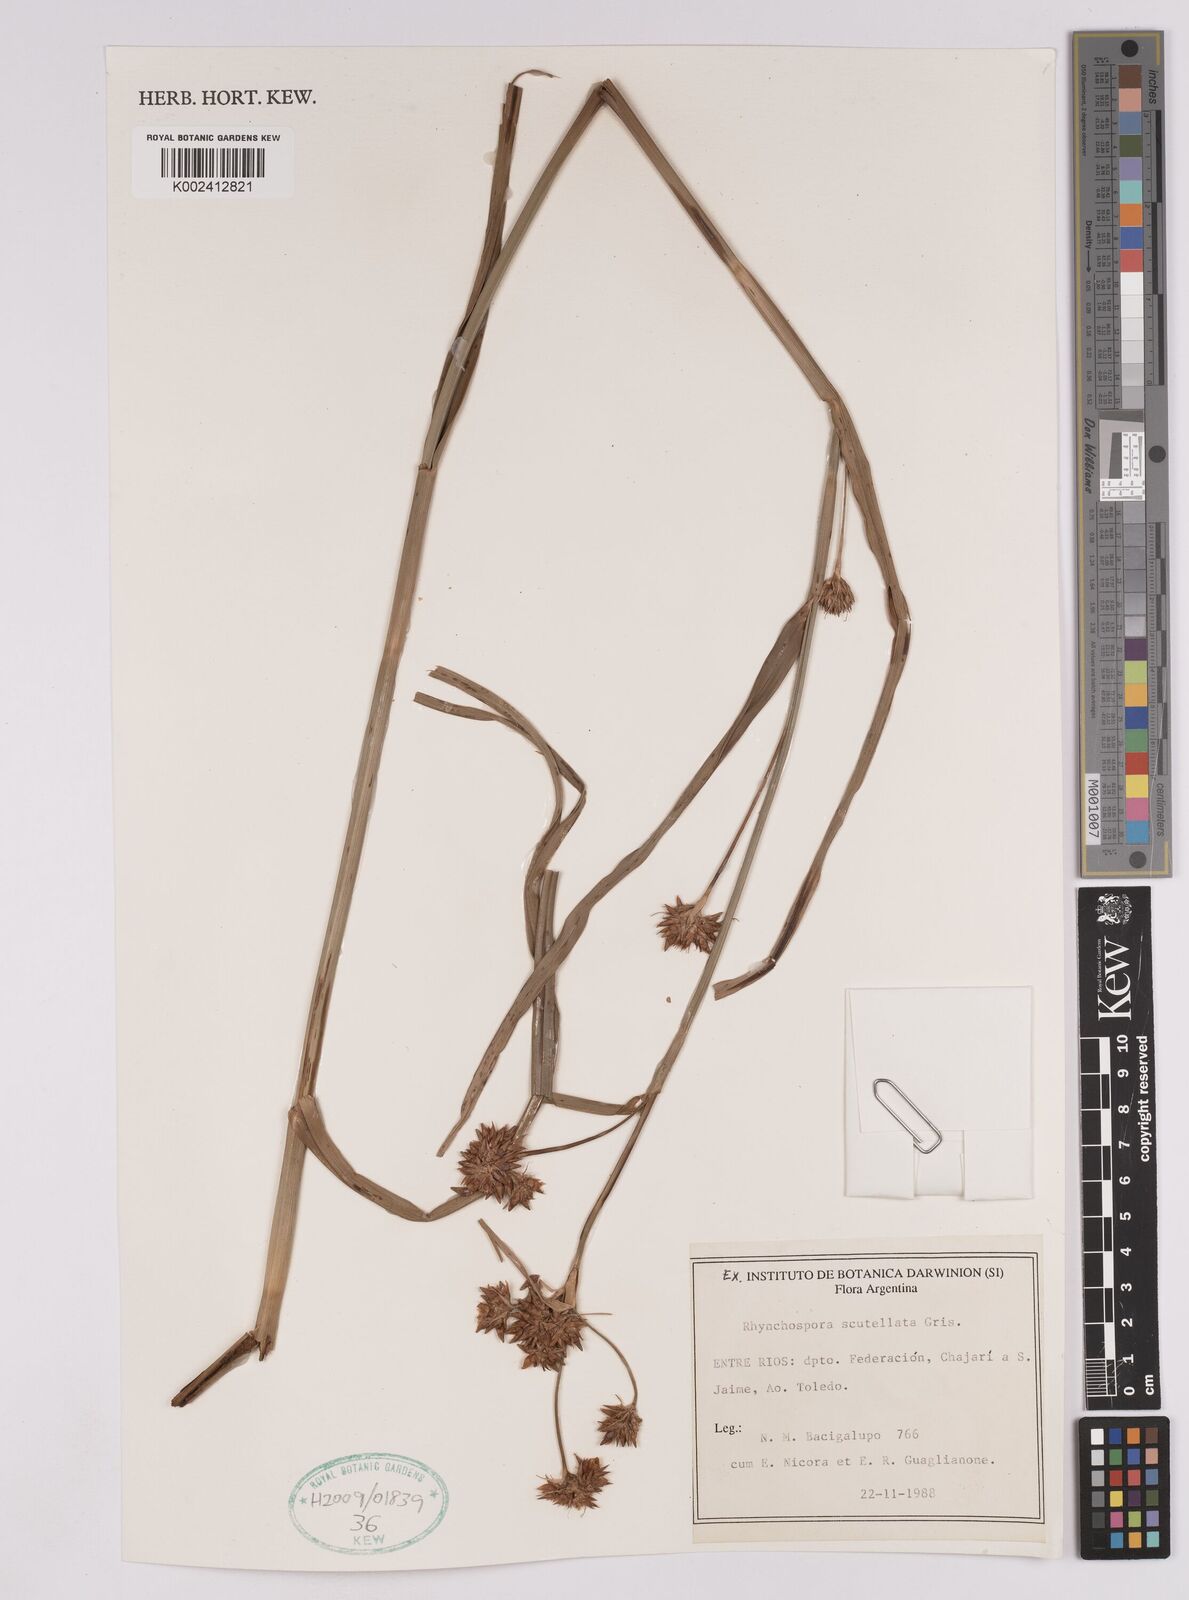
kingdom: Plantae
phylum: Tracheophyta
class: Liliopsida
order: Poales
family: Cyperaceae
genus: Rhynchospora
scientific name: Rhynchospora scutellata
